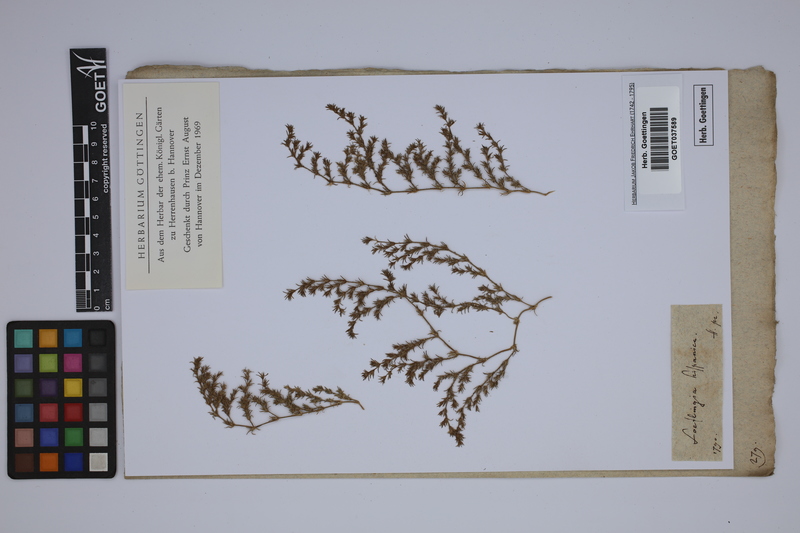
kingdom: Plantae
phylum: Tracheophyta
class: Magnoliopsida
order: Caryophyllales
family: Caryophyllaceae
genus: Loeflingia
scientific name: Loeflingia hispanica
